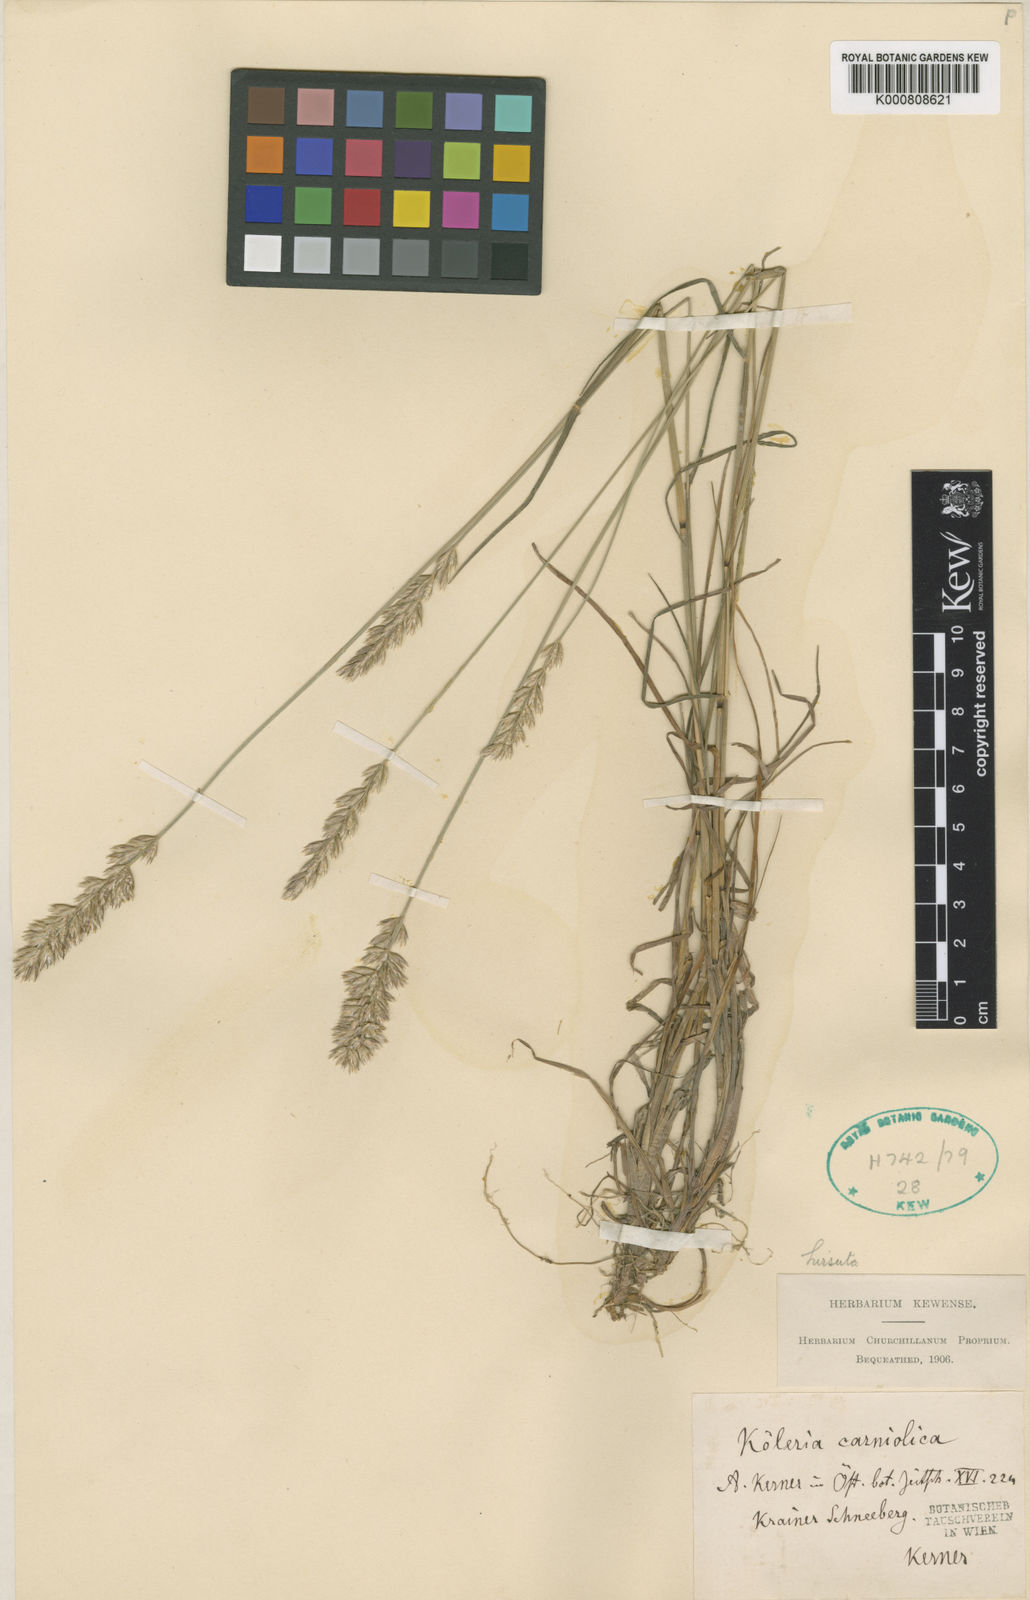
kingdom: Plantae
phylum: Tracheophyta
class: Liliopsida
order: Poales
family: Poaceae
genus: Koeleria
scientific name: Koeleria eriostachya
